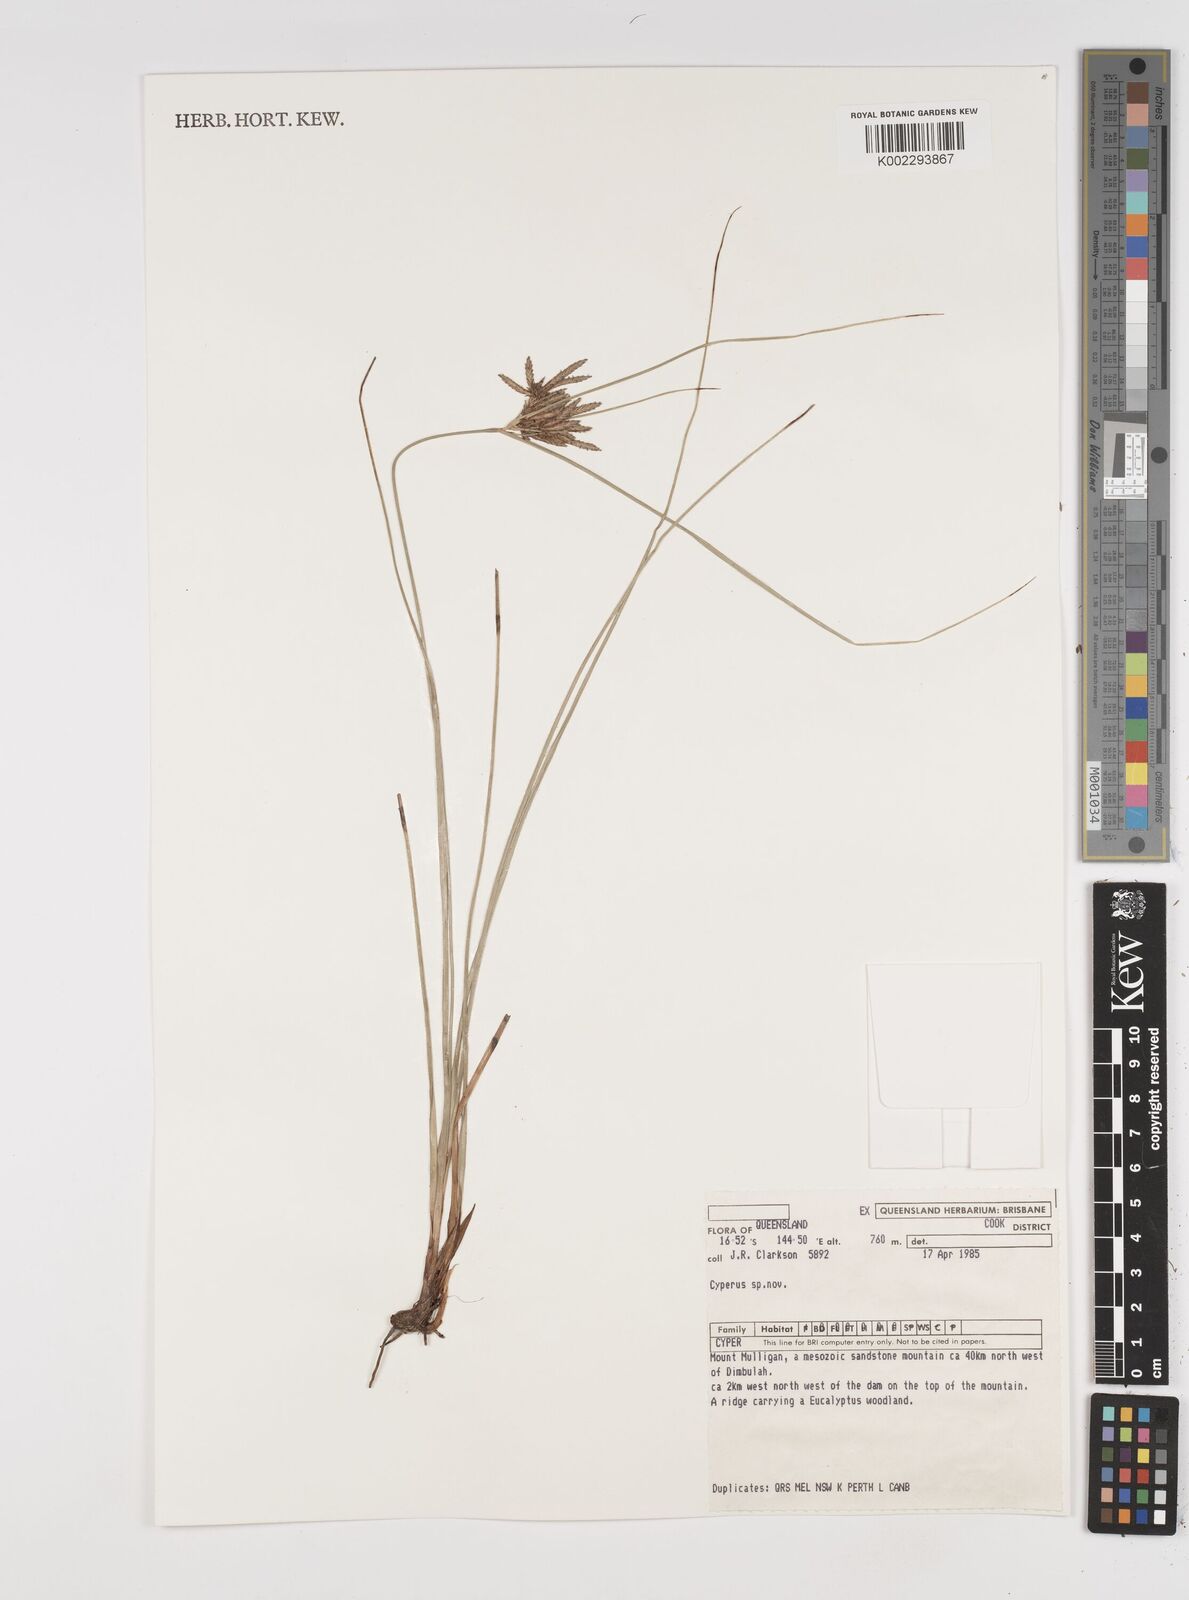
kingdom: Plantae
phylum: Tracheophyta
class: Liliopsida
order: Poales
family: Cyperaceae
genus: Cyperus
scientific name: Cyperus
